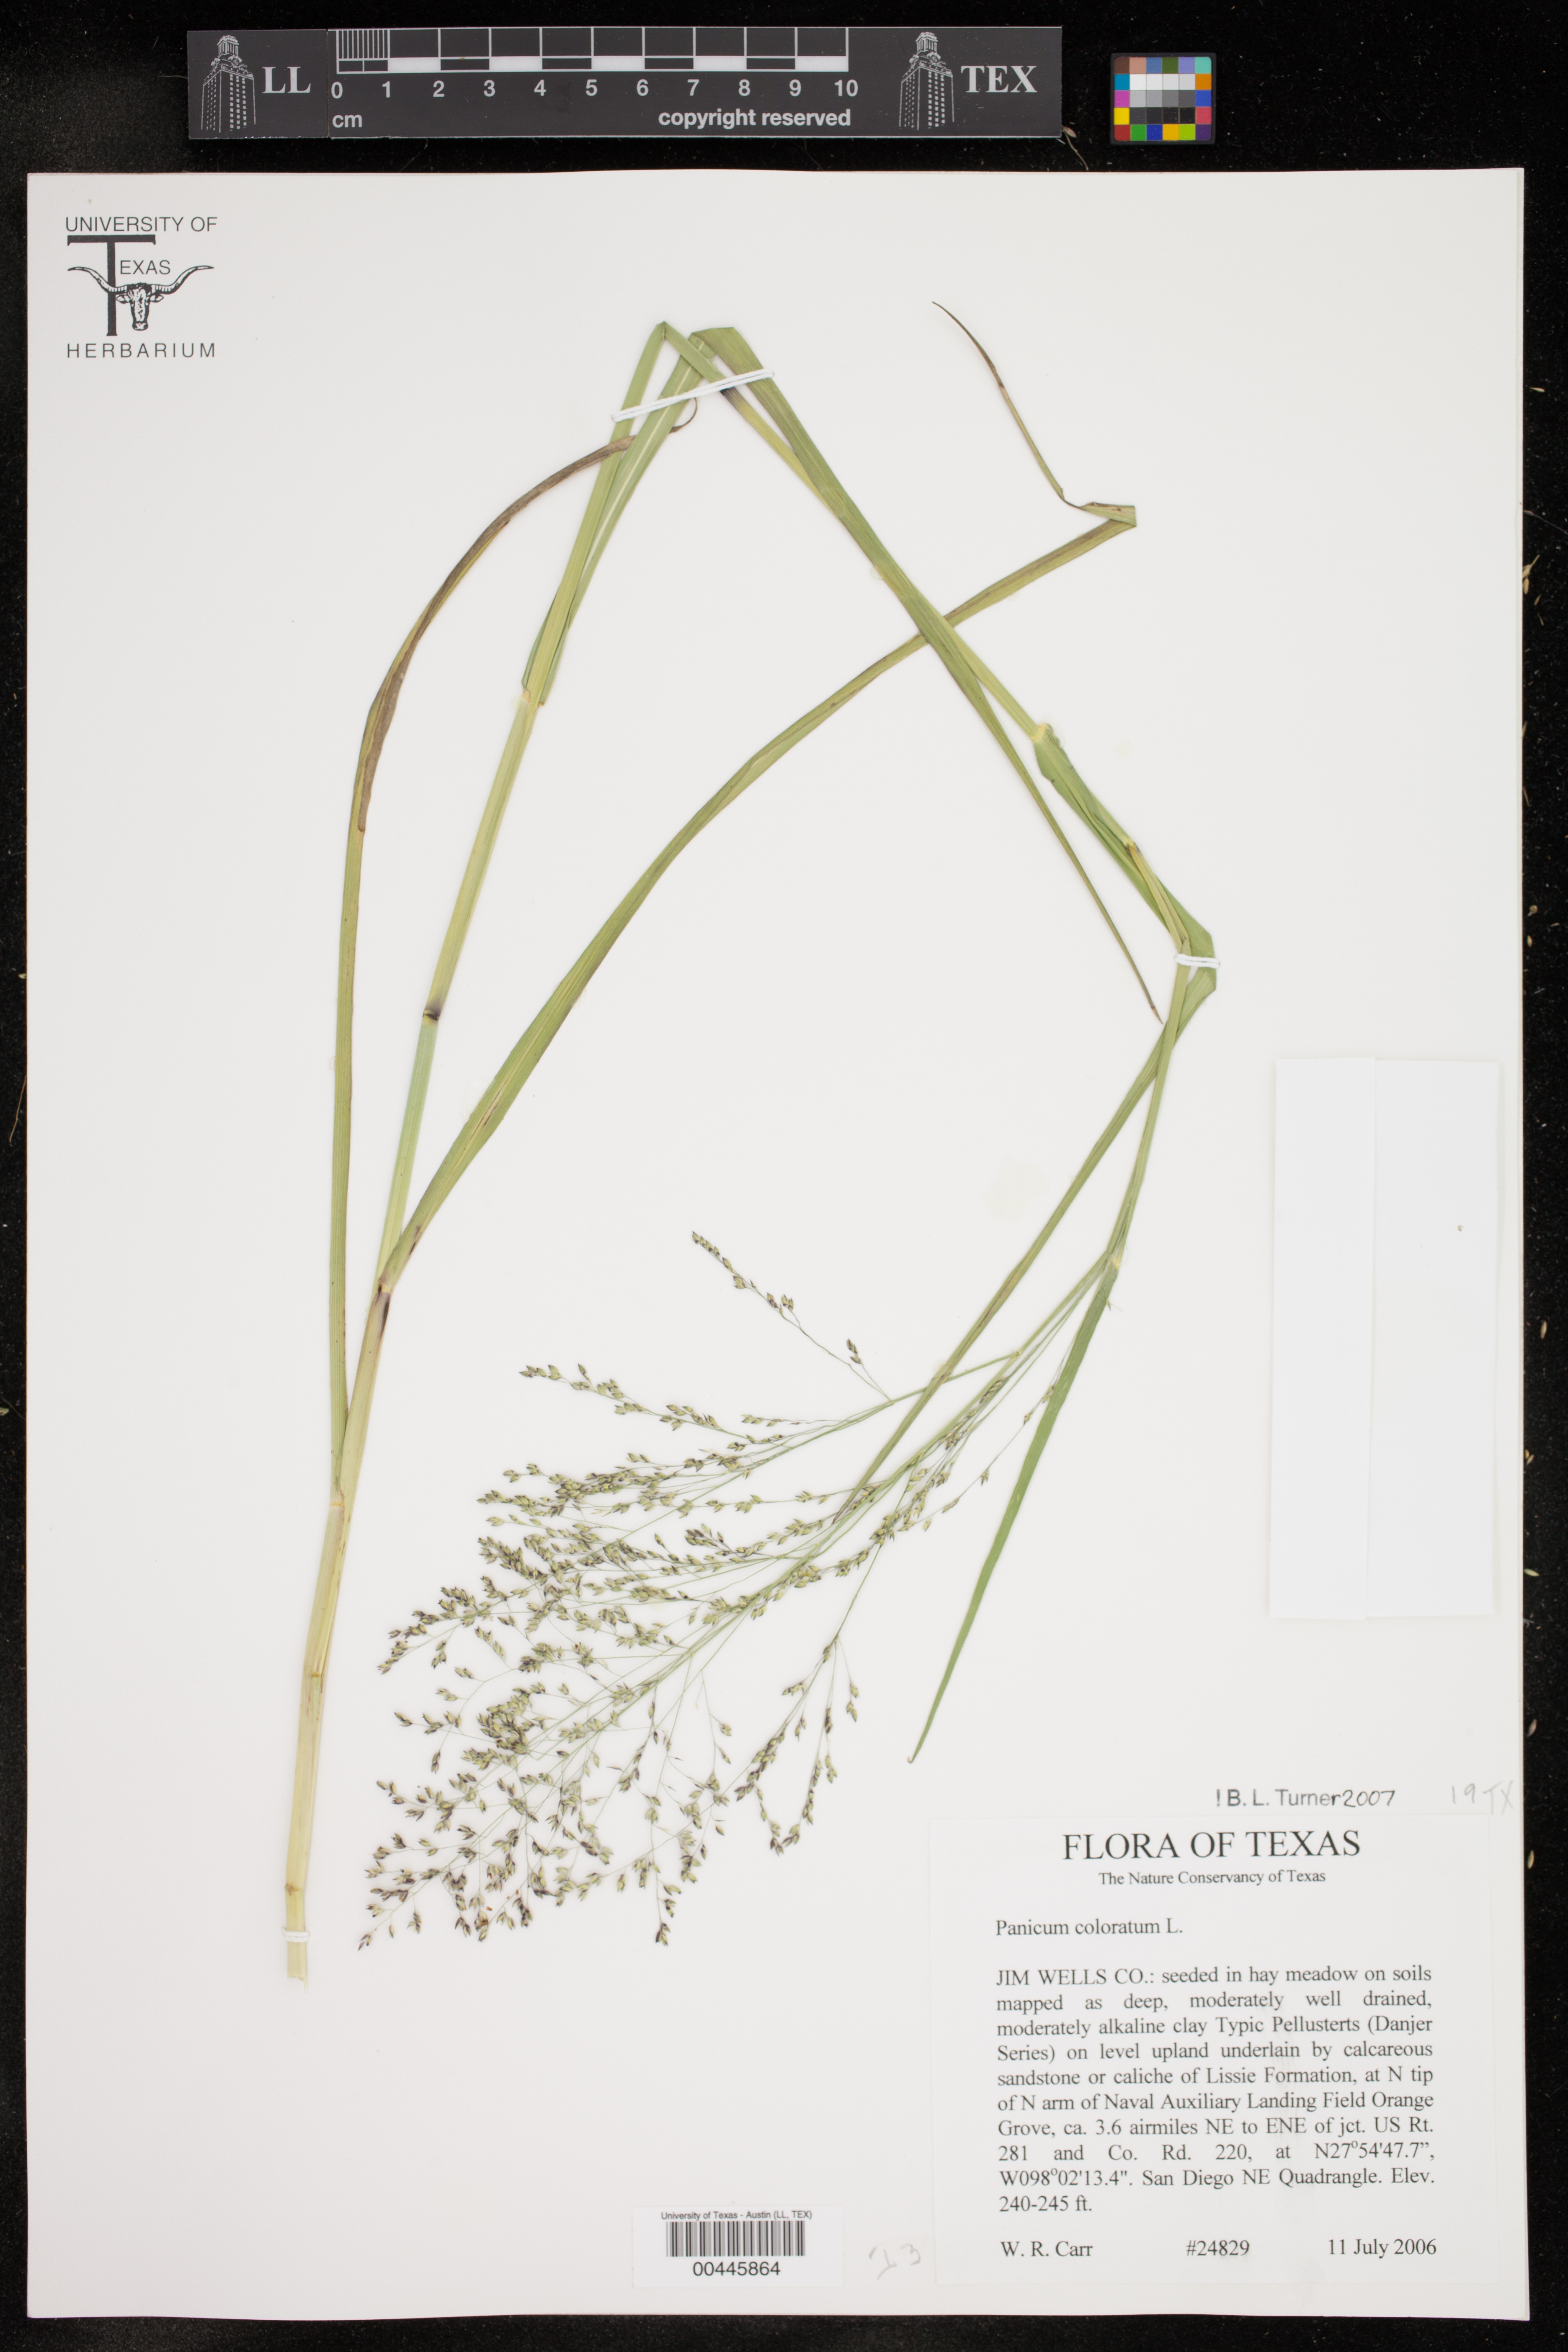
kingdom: Plantae
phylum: Tracheophyta
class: Liliopsida
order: Poales
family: Poaceae
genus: Panicum
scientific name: Panicum coloratum
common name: Kleingrass
